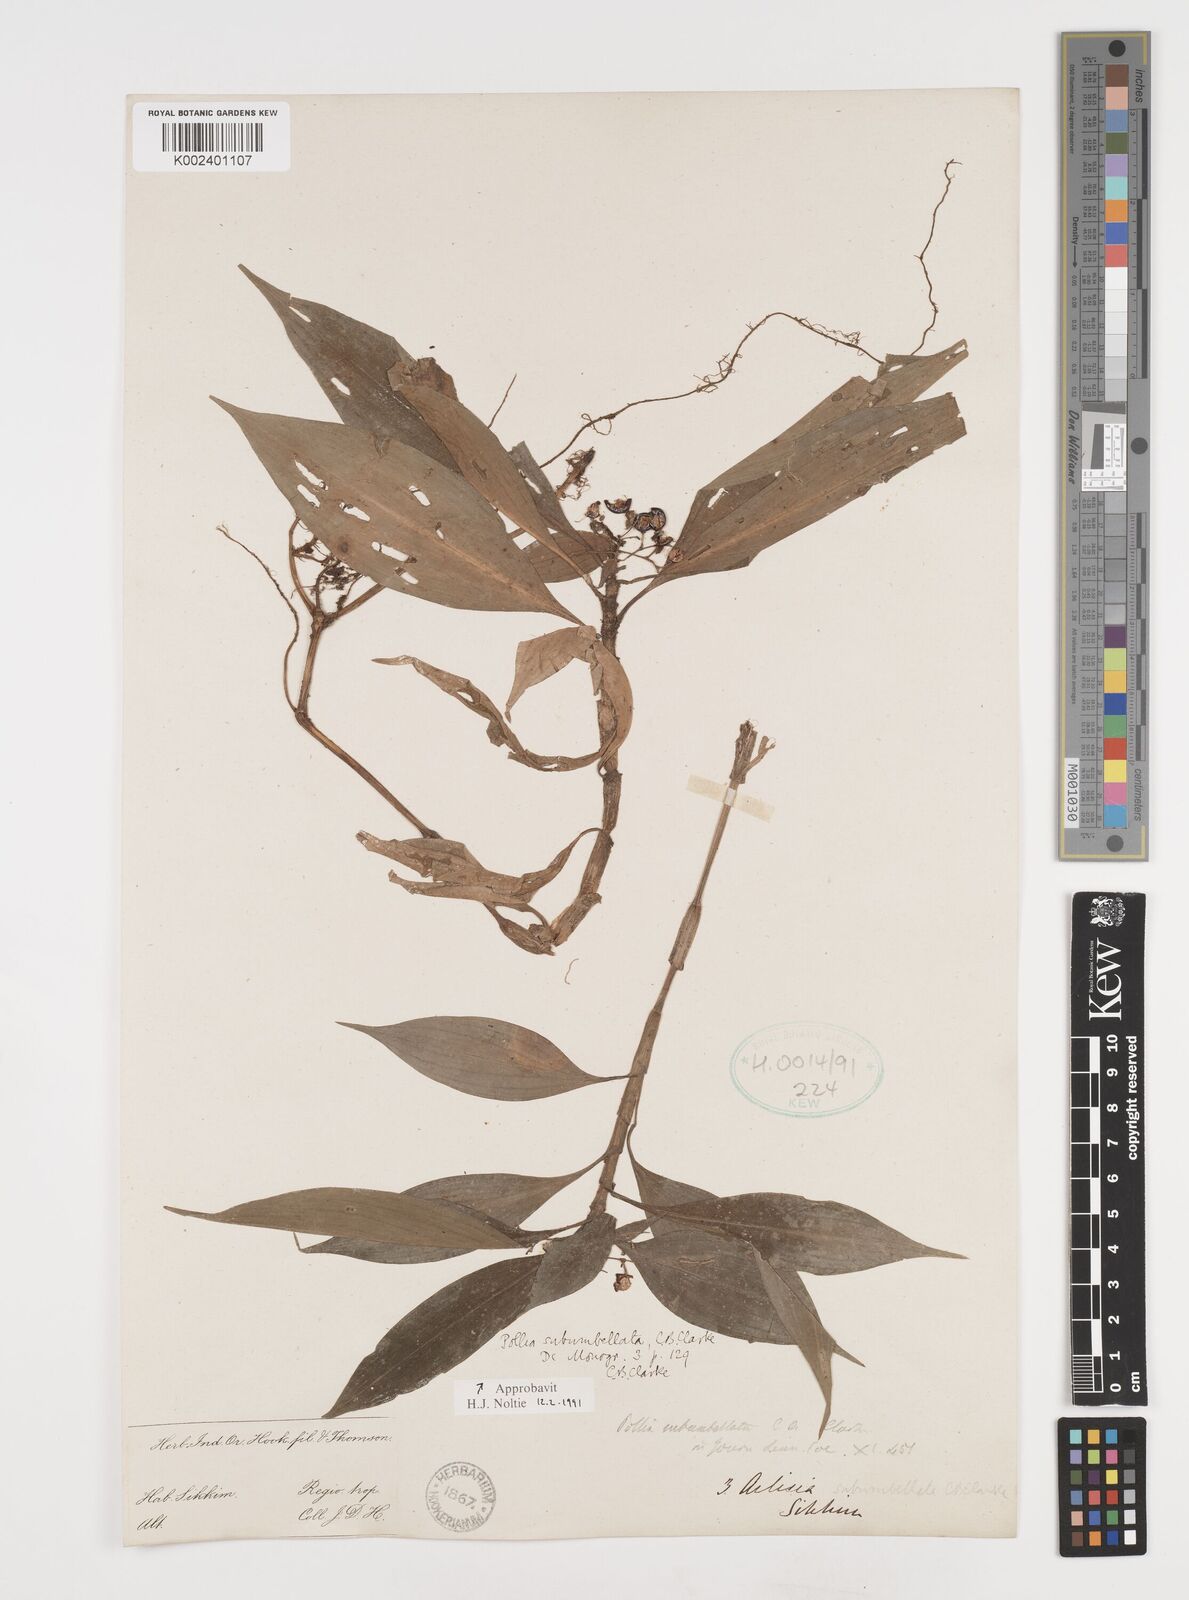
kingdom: Plantae
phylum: Tracheophyta
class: Liliopsida
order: Commelinales
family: Commelinaceae
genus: Pollia
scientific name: Pollia subumbellata
